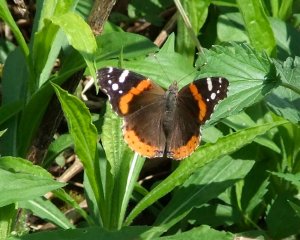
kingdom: Animalia
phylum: Arthropoda
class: Insecta
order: Lepidoptera
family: Nymphalidae
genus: Vanessa
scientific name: Vanessa atalanta
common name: Red Admiral
